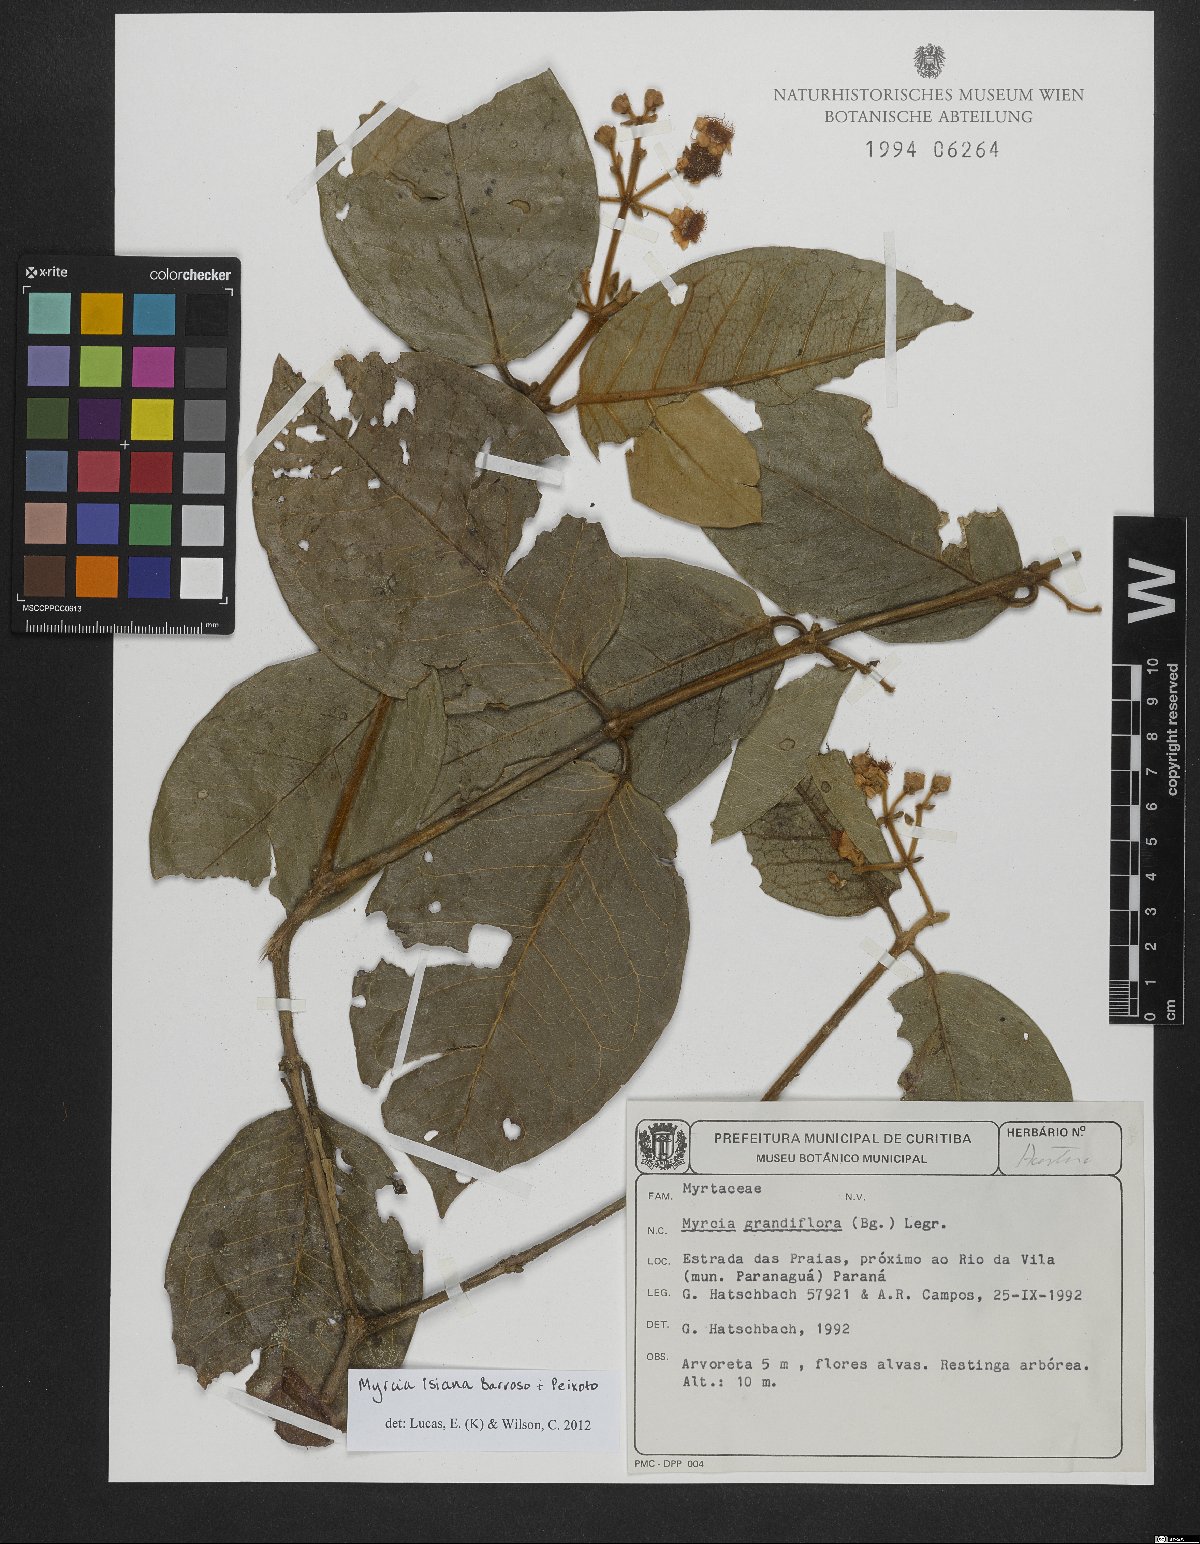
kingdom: Plantae
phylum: Tracheophyta
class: Magnoliopsida
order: Myrtales
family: Myrtaceae
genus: Myrcia
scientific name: Myrcia isaiana
